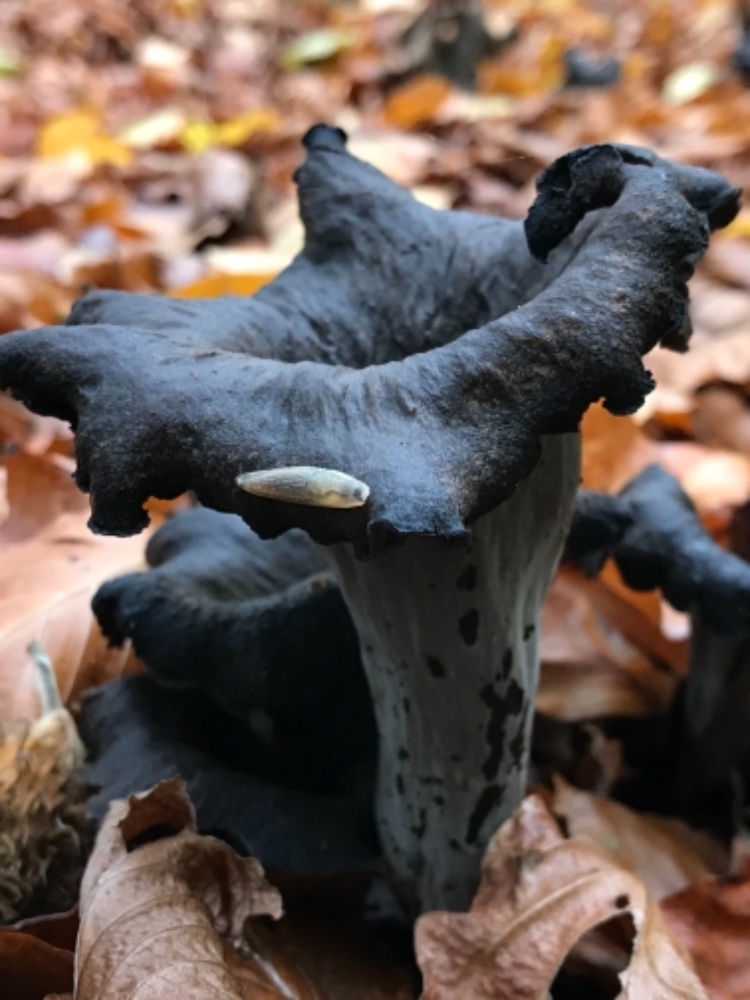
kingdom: Fungi
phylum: Basidiomycota
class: Agaricomycetes
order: Cantharellales
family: Hydnaceae
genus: Craterellus
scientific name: Craterellus cornucopioides
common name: trompetsvamp
